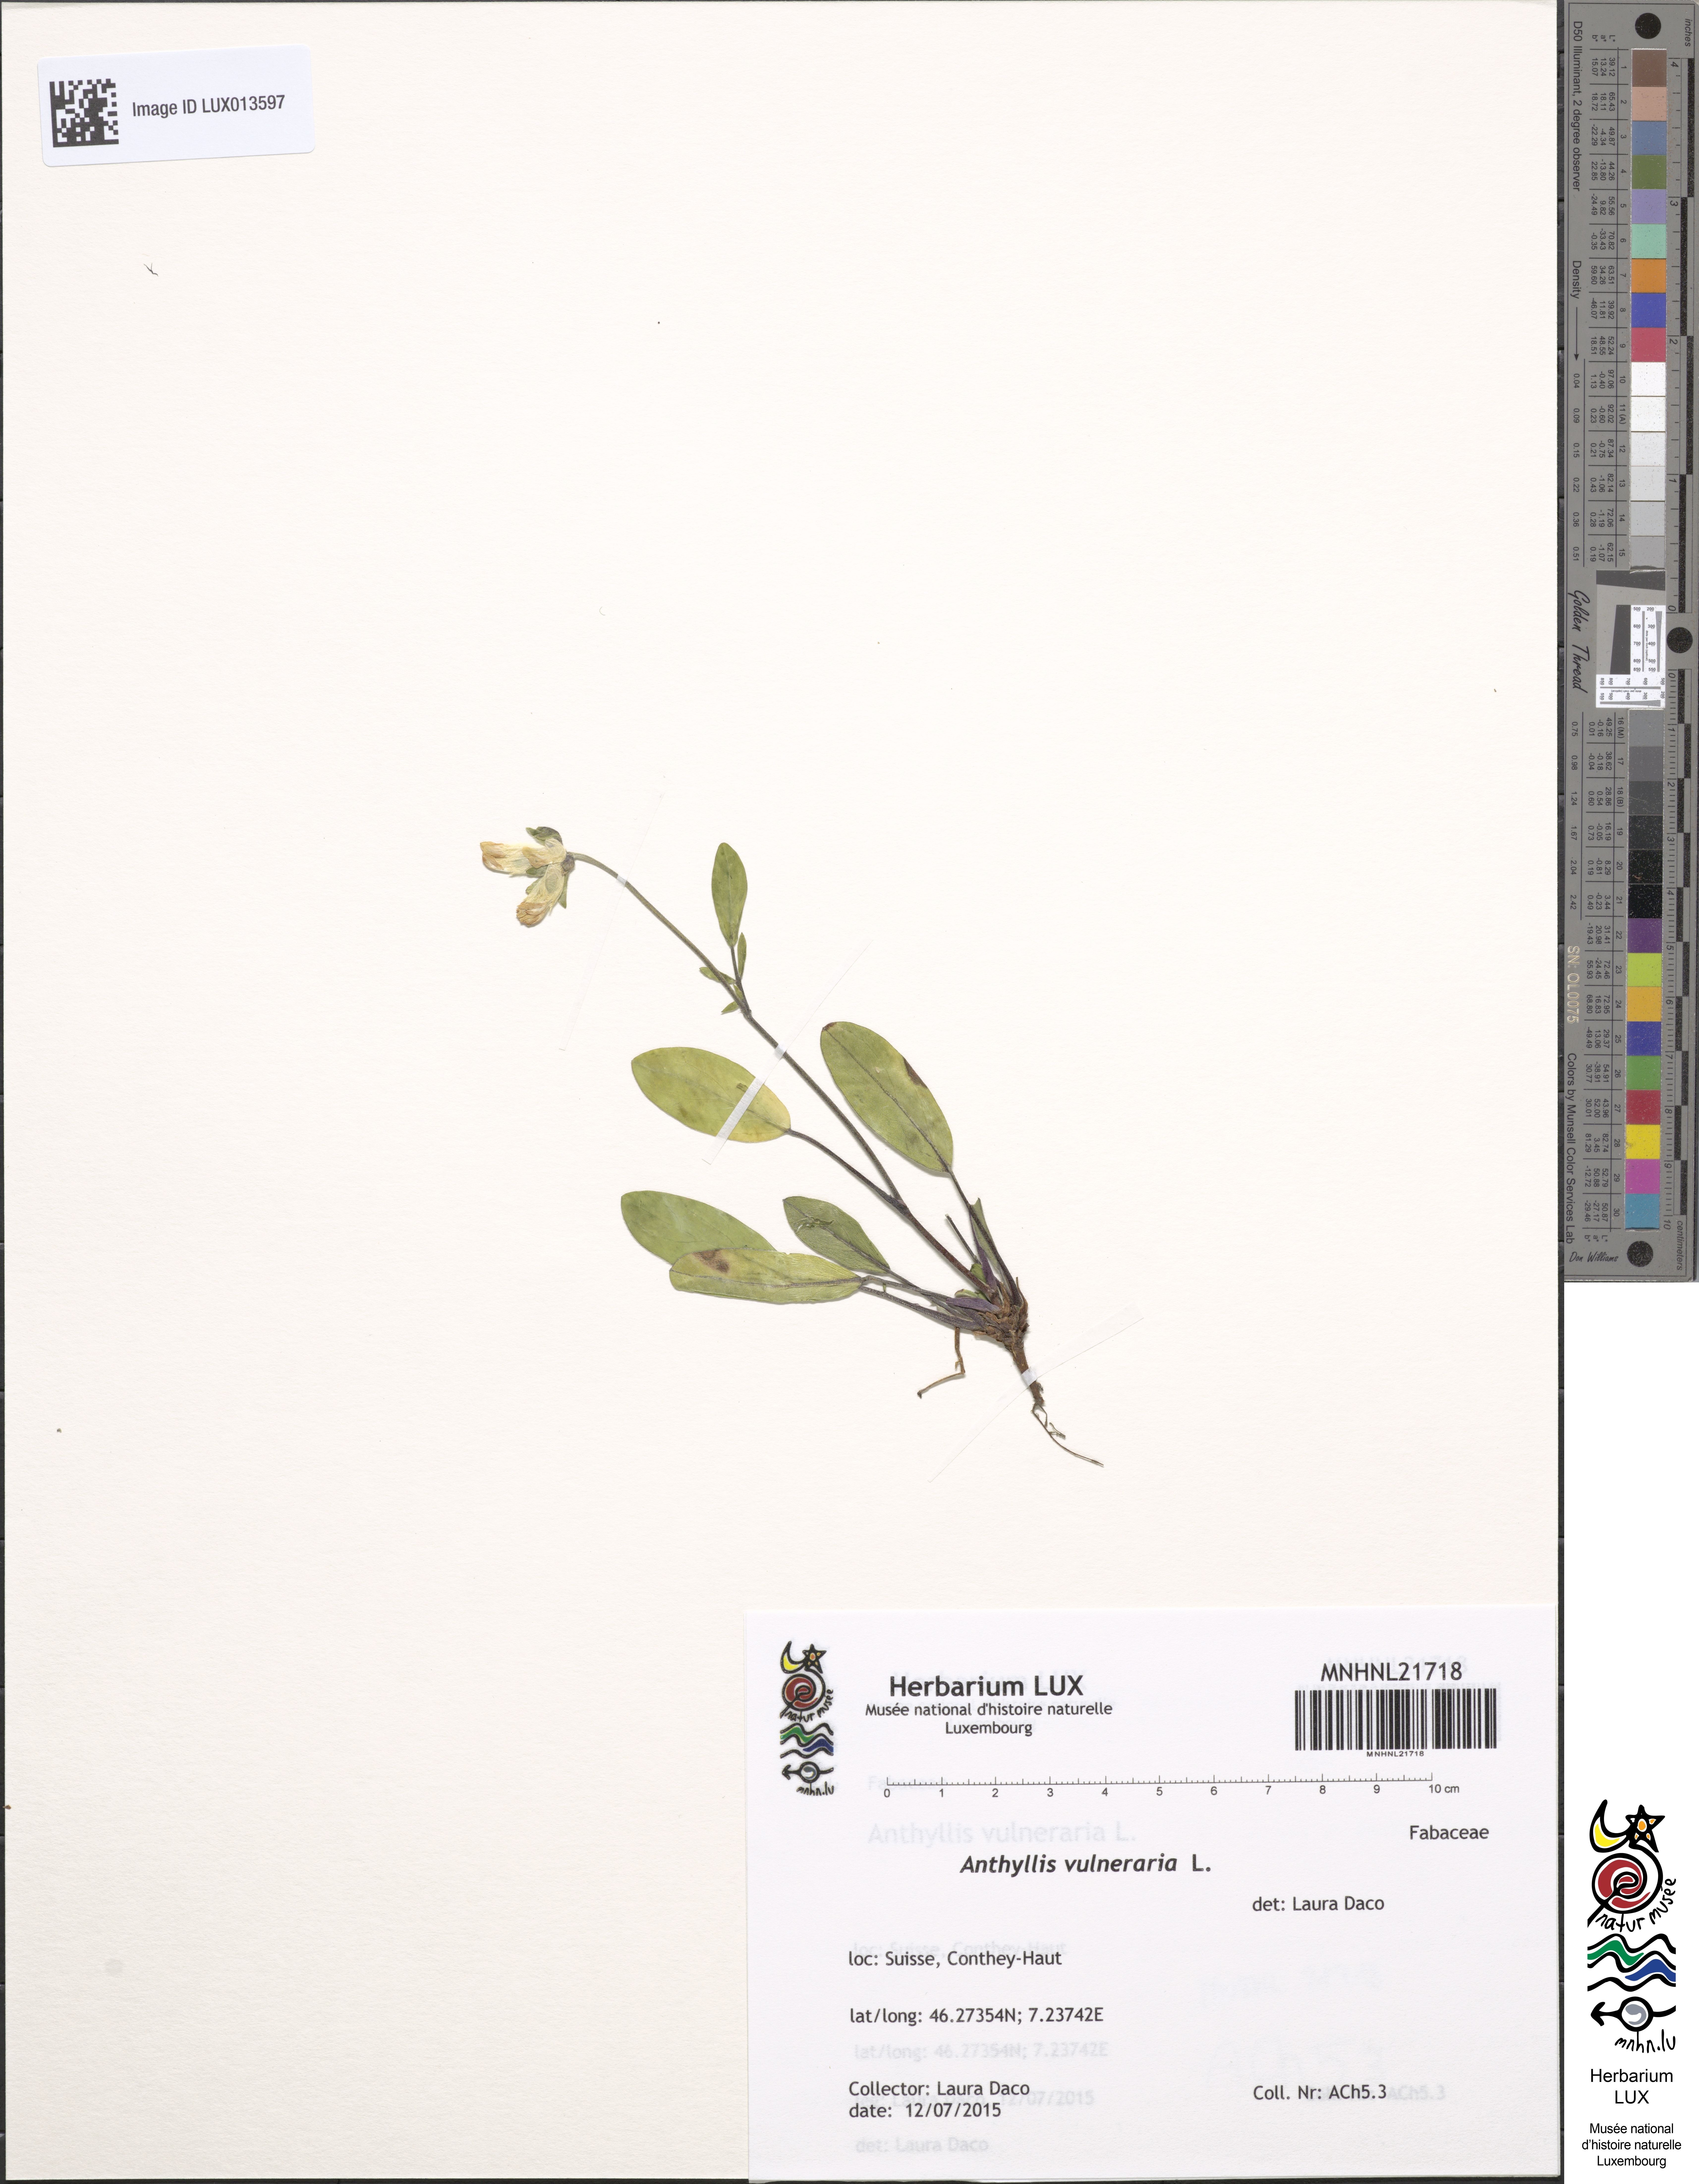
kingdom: Plantae
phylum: Tracheophyta
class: Magnoliopsida
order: Fabales
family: Fabaceae
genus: Anthyllis
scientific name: Anthyllis vulneraria
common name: Kidney vetch
